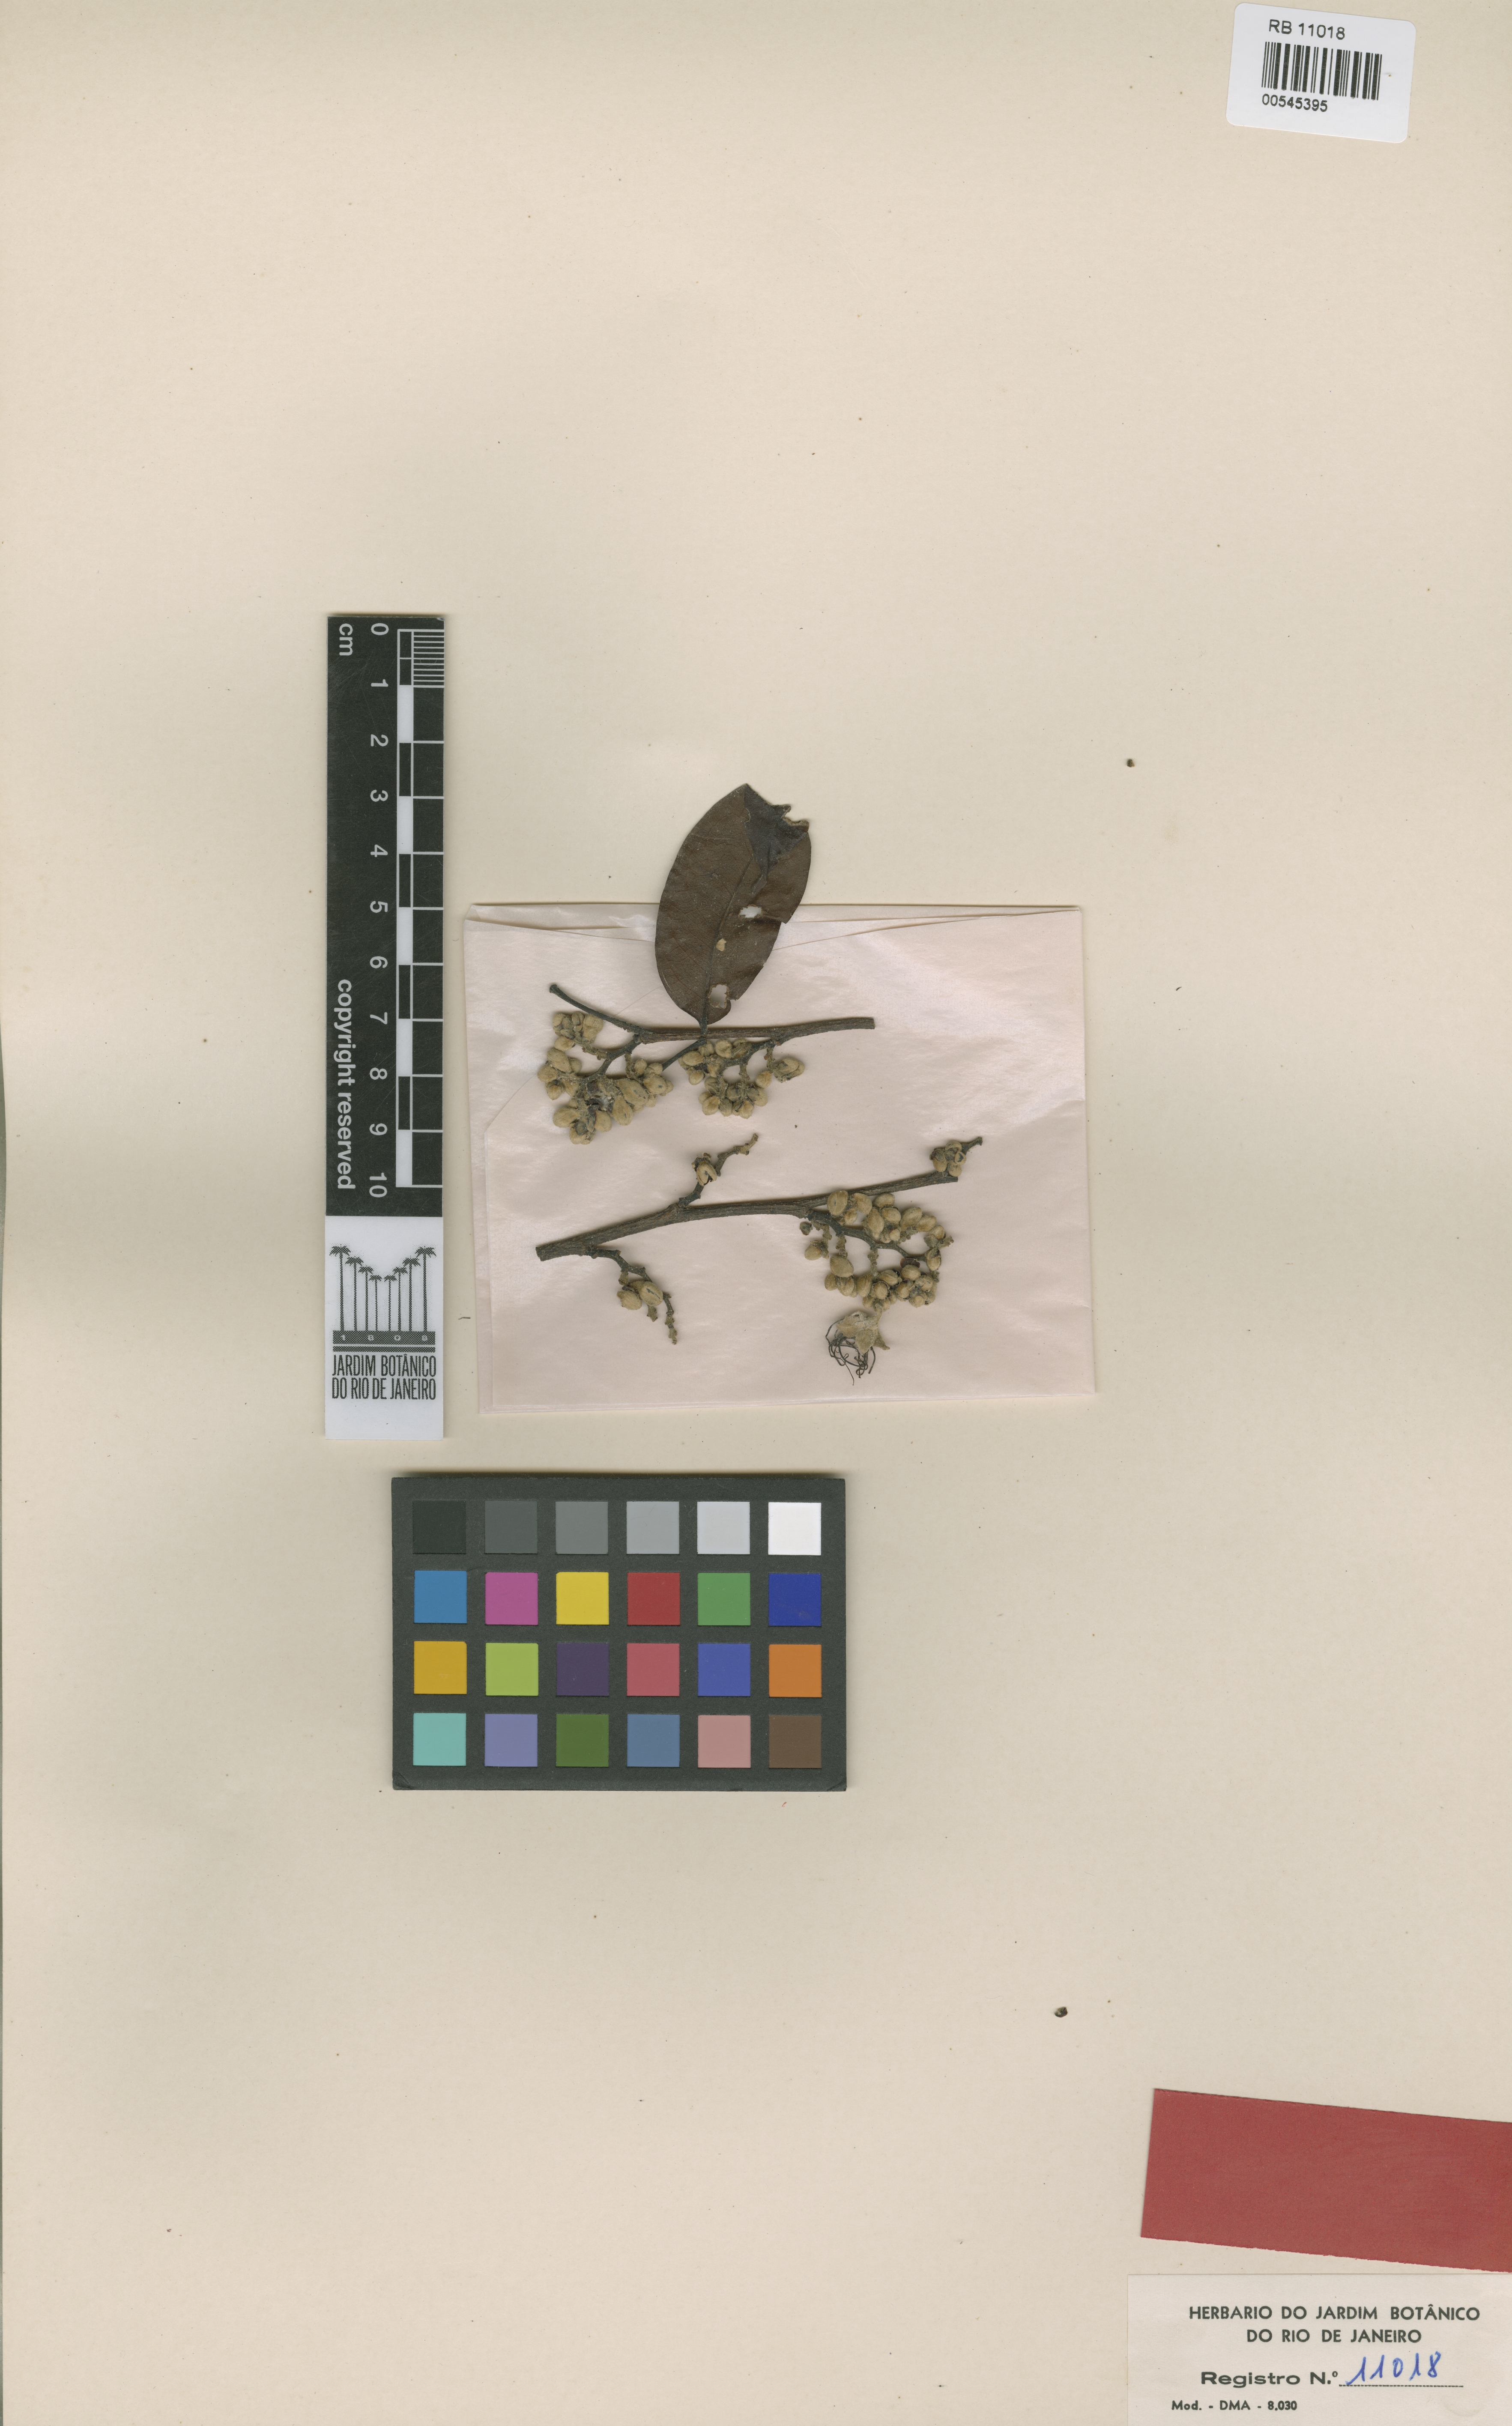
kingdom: Plantae
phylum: Tracheophyta
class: Magnoliopsida
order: Fabales
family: Fabaceae
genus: Peltogyne
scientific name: Peltogyne lecointei
